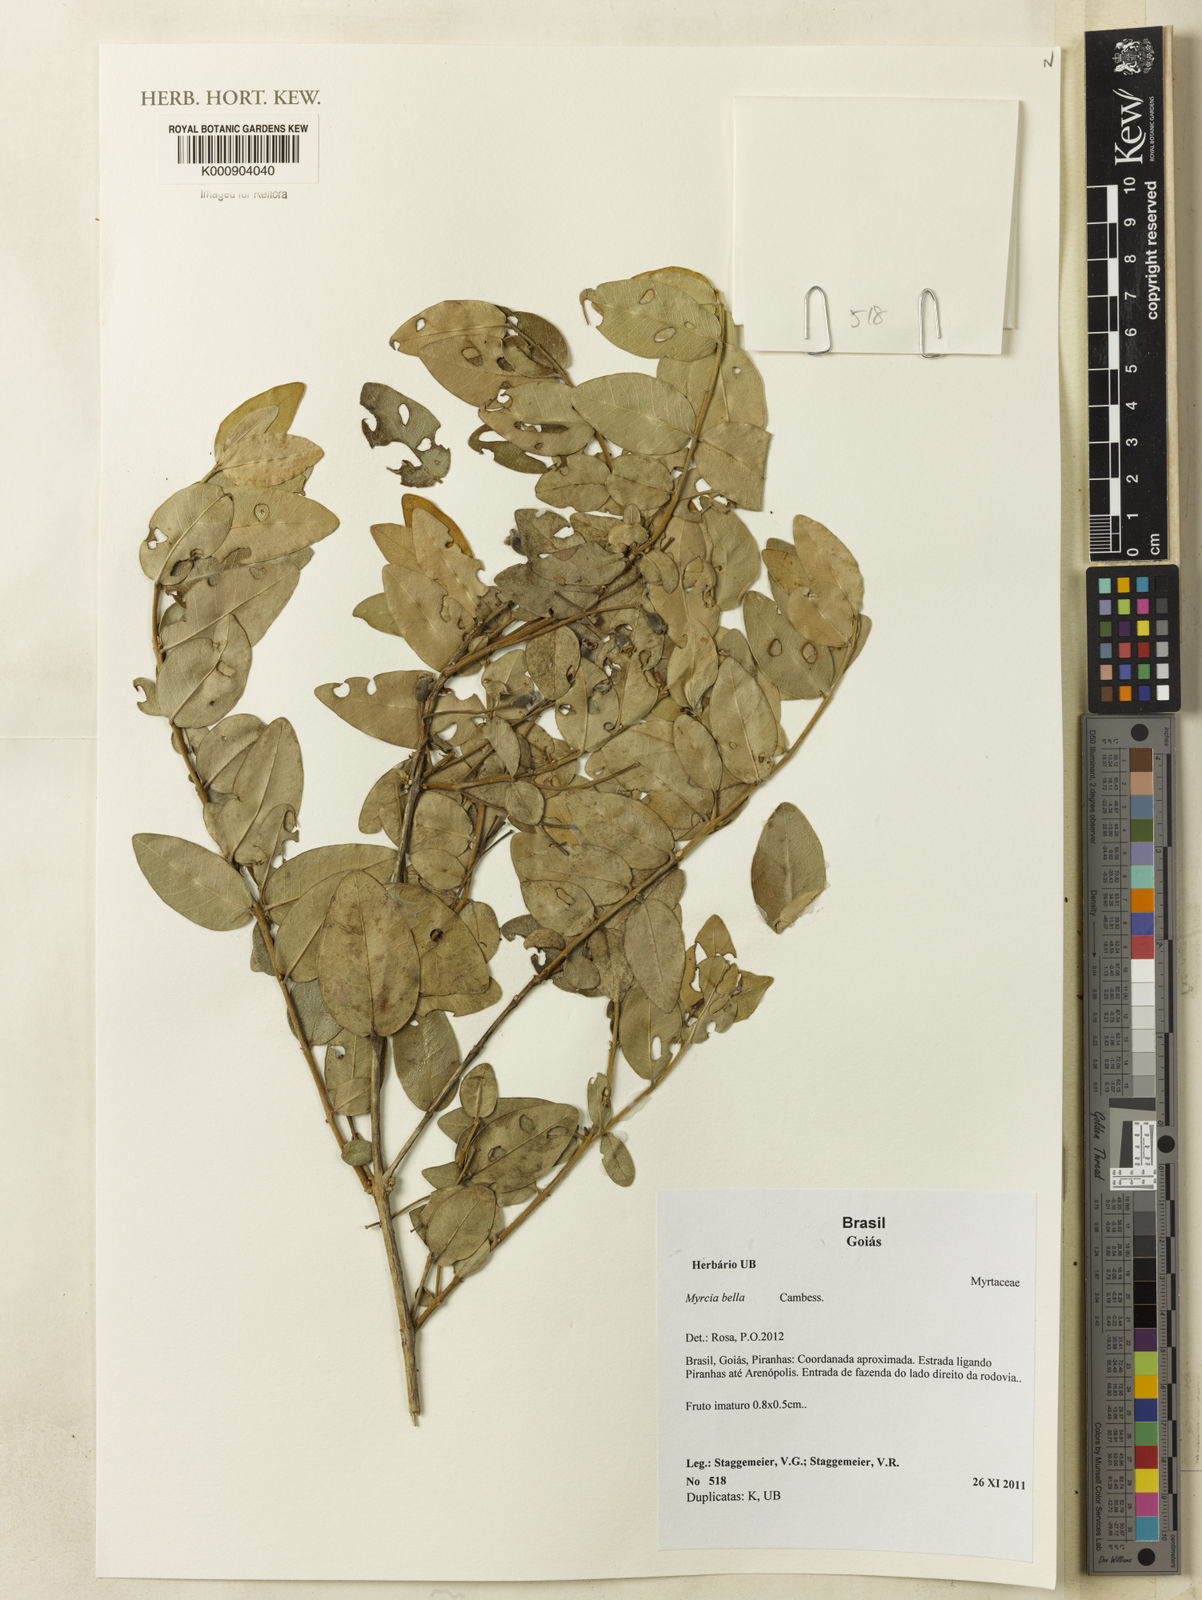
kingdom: Plantae
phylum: Tracheophyta
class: Magnoliopsida
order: Myrtales
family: Myrtaceae
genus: Myrcia
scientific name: Myrcia bella
